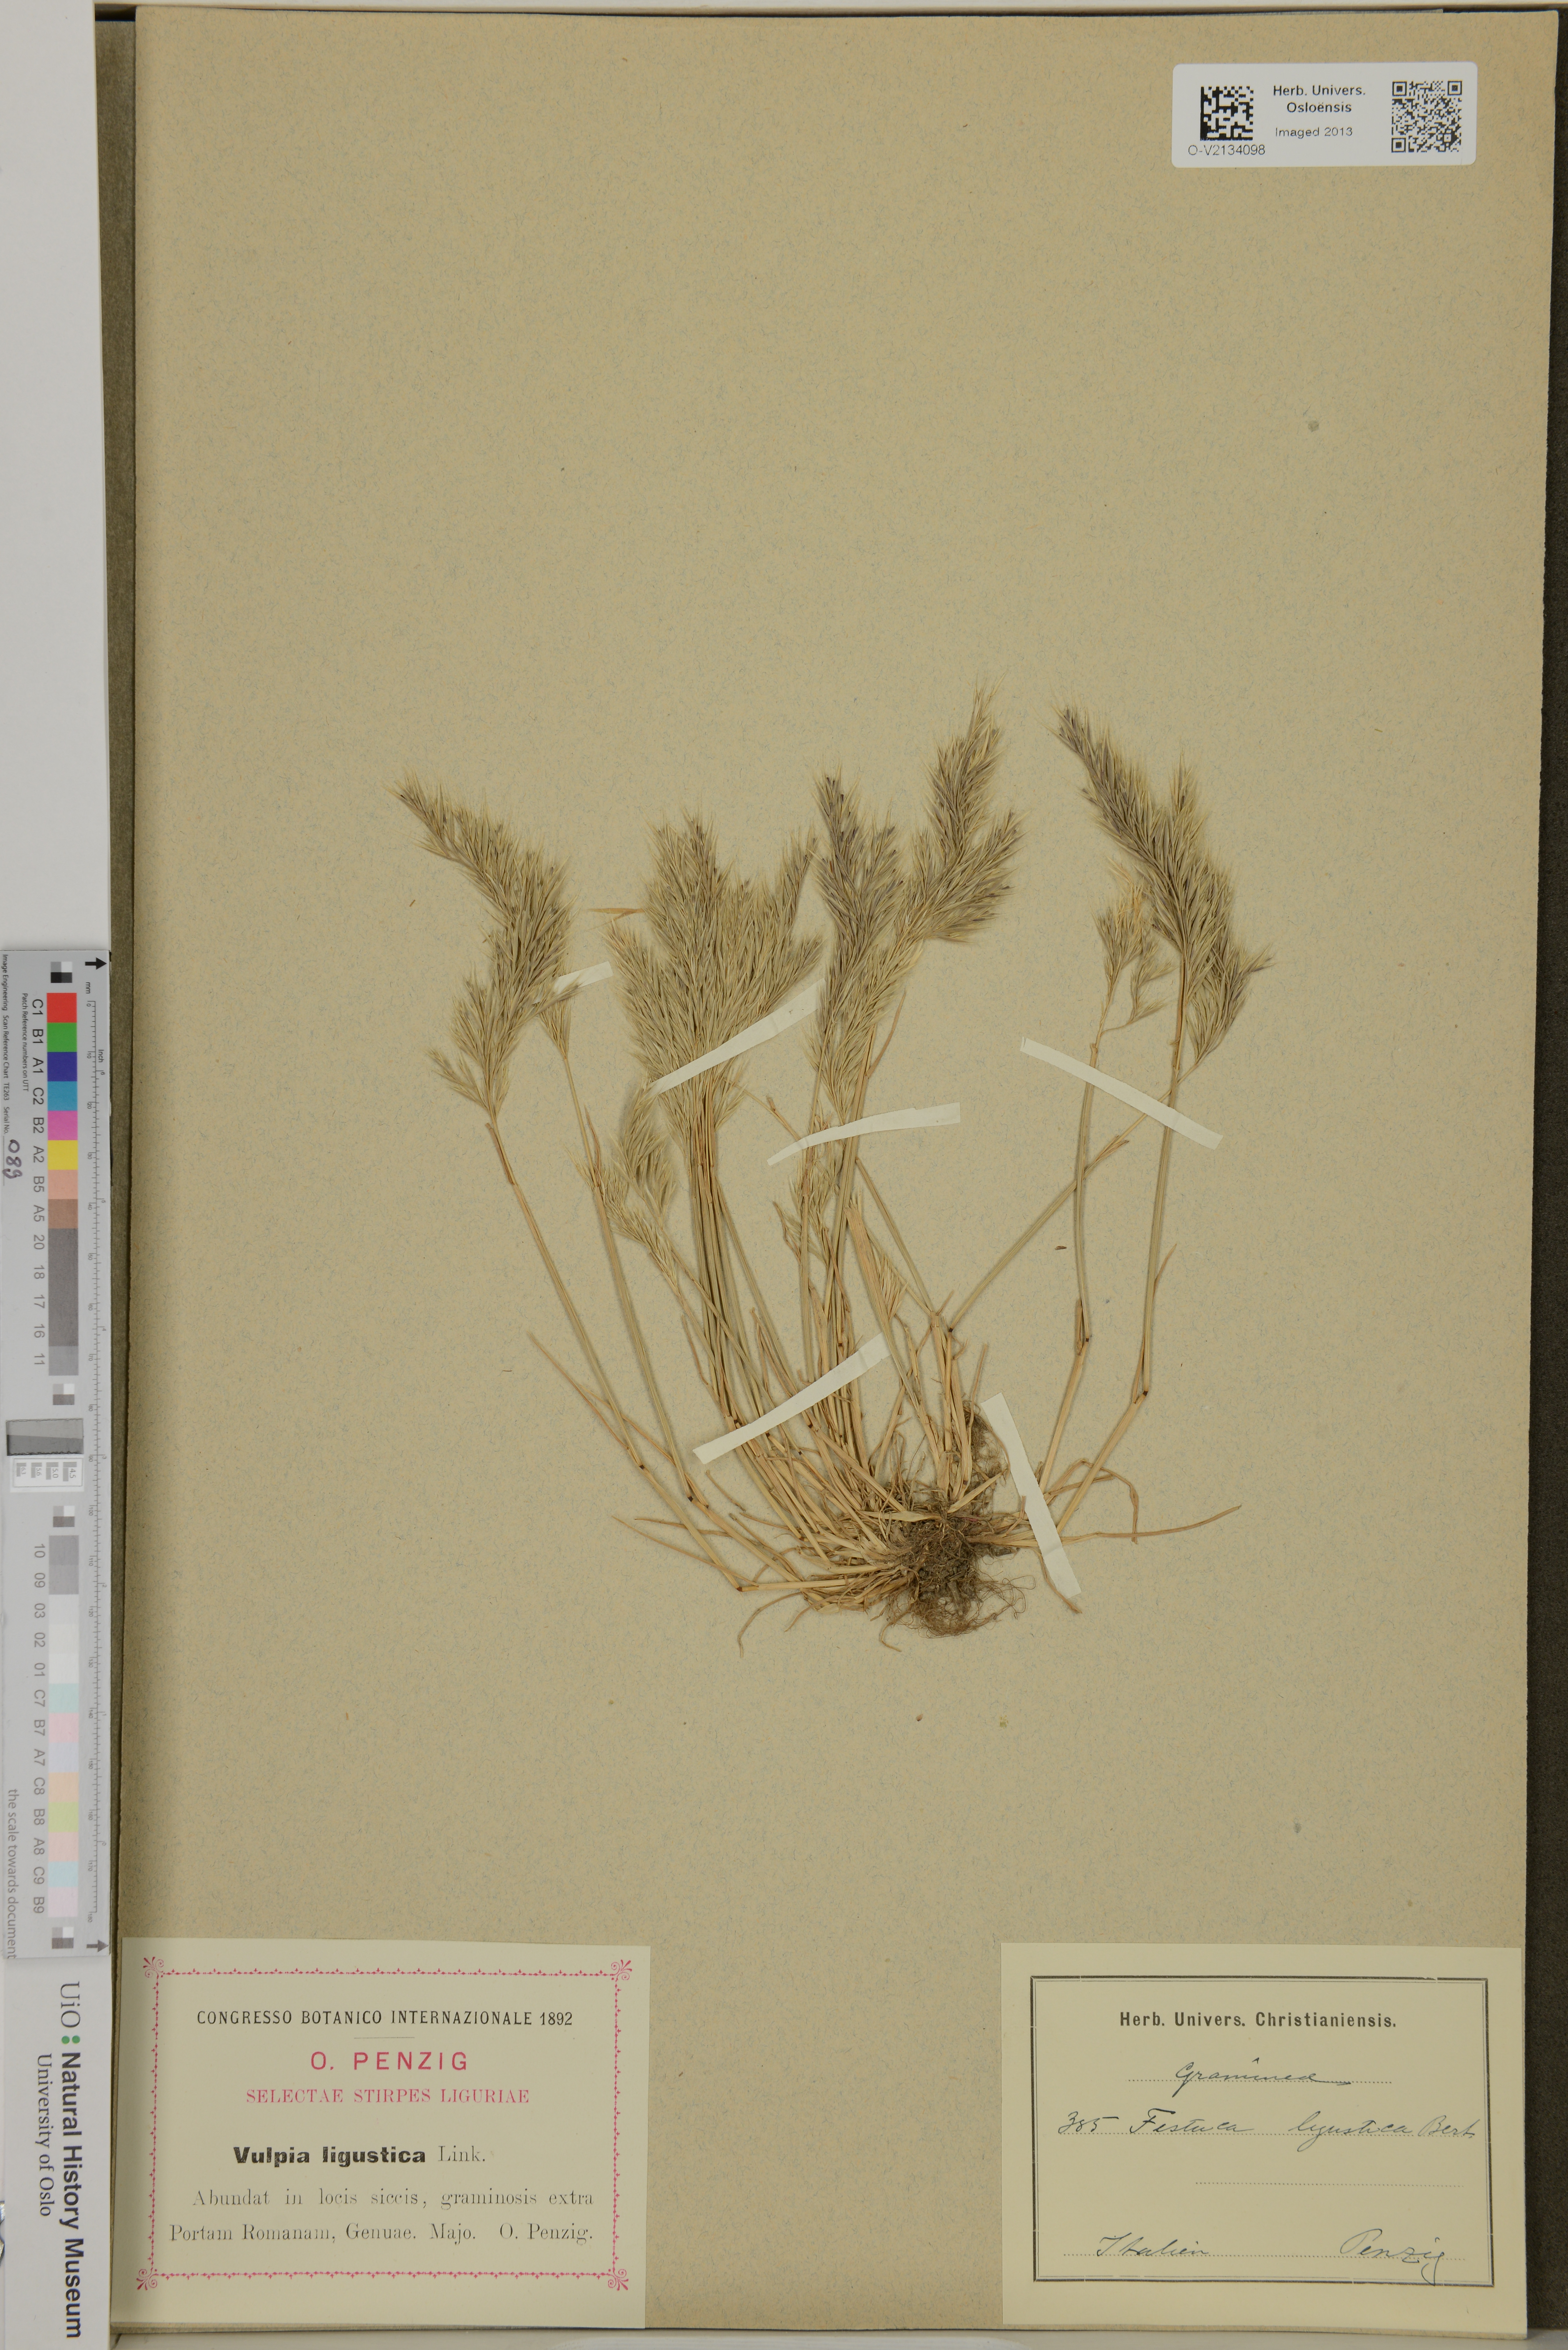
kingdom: Plantae
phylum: Tracheophyta
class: Liliopsida
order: Poales
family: Poaceae
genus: Festuca
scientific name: Festuca ligustica
